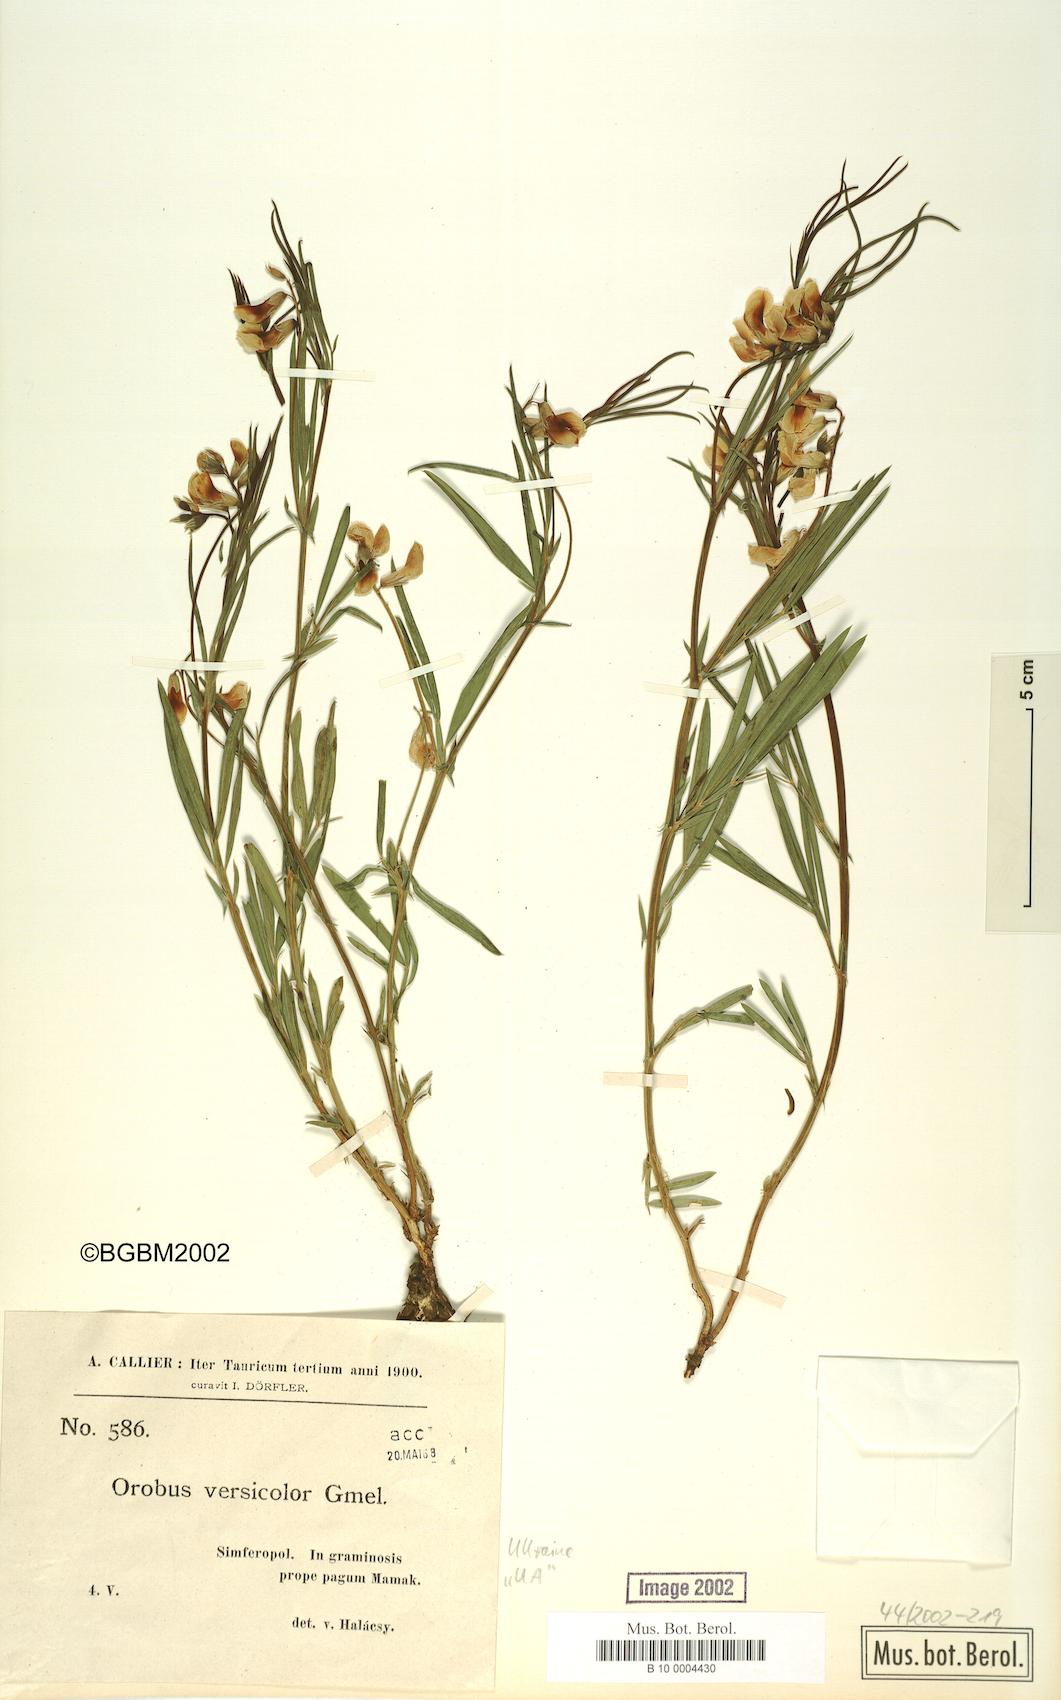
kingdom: Plantae
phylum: Tracheophyta
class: Magnoliopsida
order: Fabales
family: Fabaceae
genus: Lathyrus
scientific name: Lathyrus pannonicus
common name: Pea
